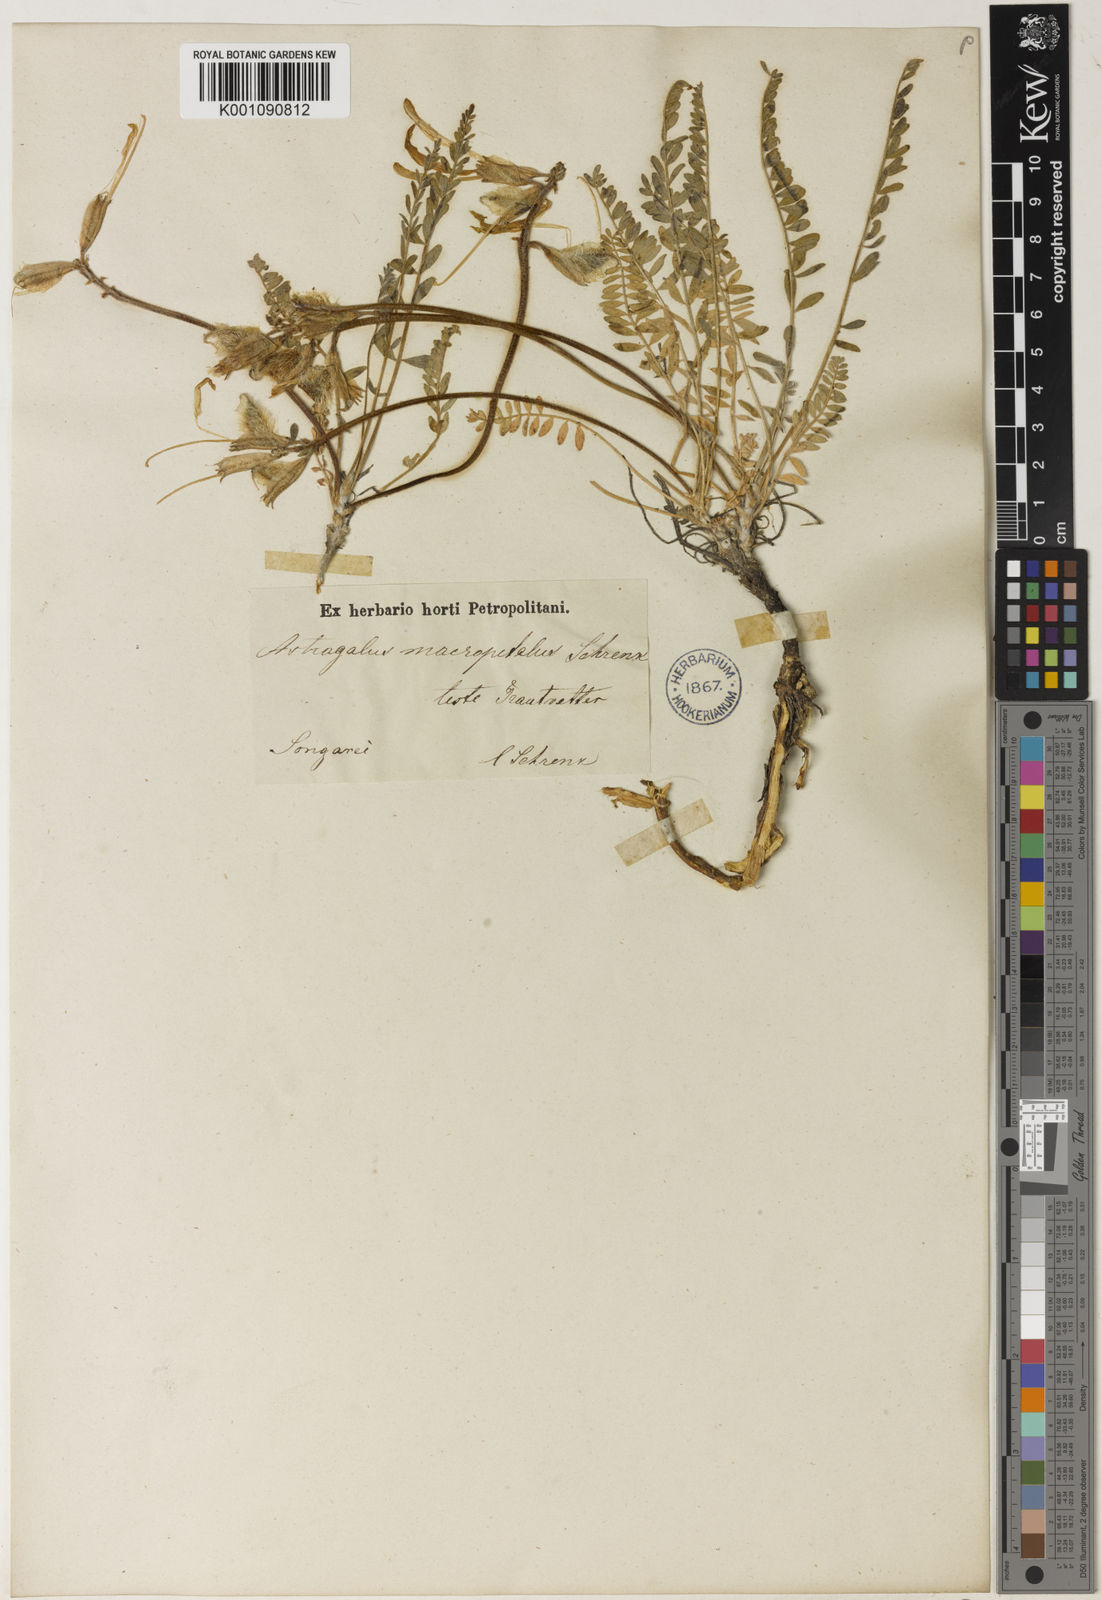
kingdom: Plantae
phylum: Tracheophyta
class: Magnoliopsida
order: Fabales
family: Fabaceae
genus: Astragalus
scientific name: Astragalus
